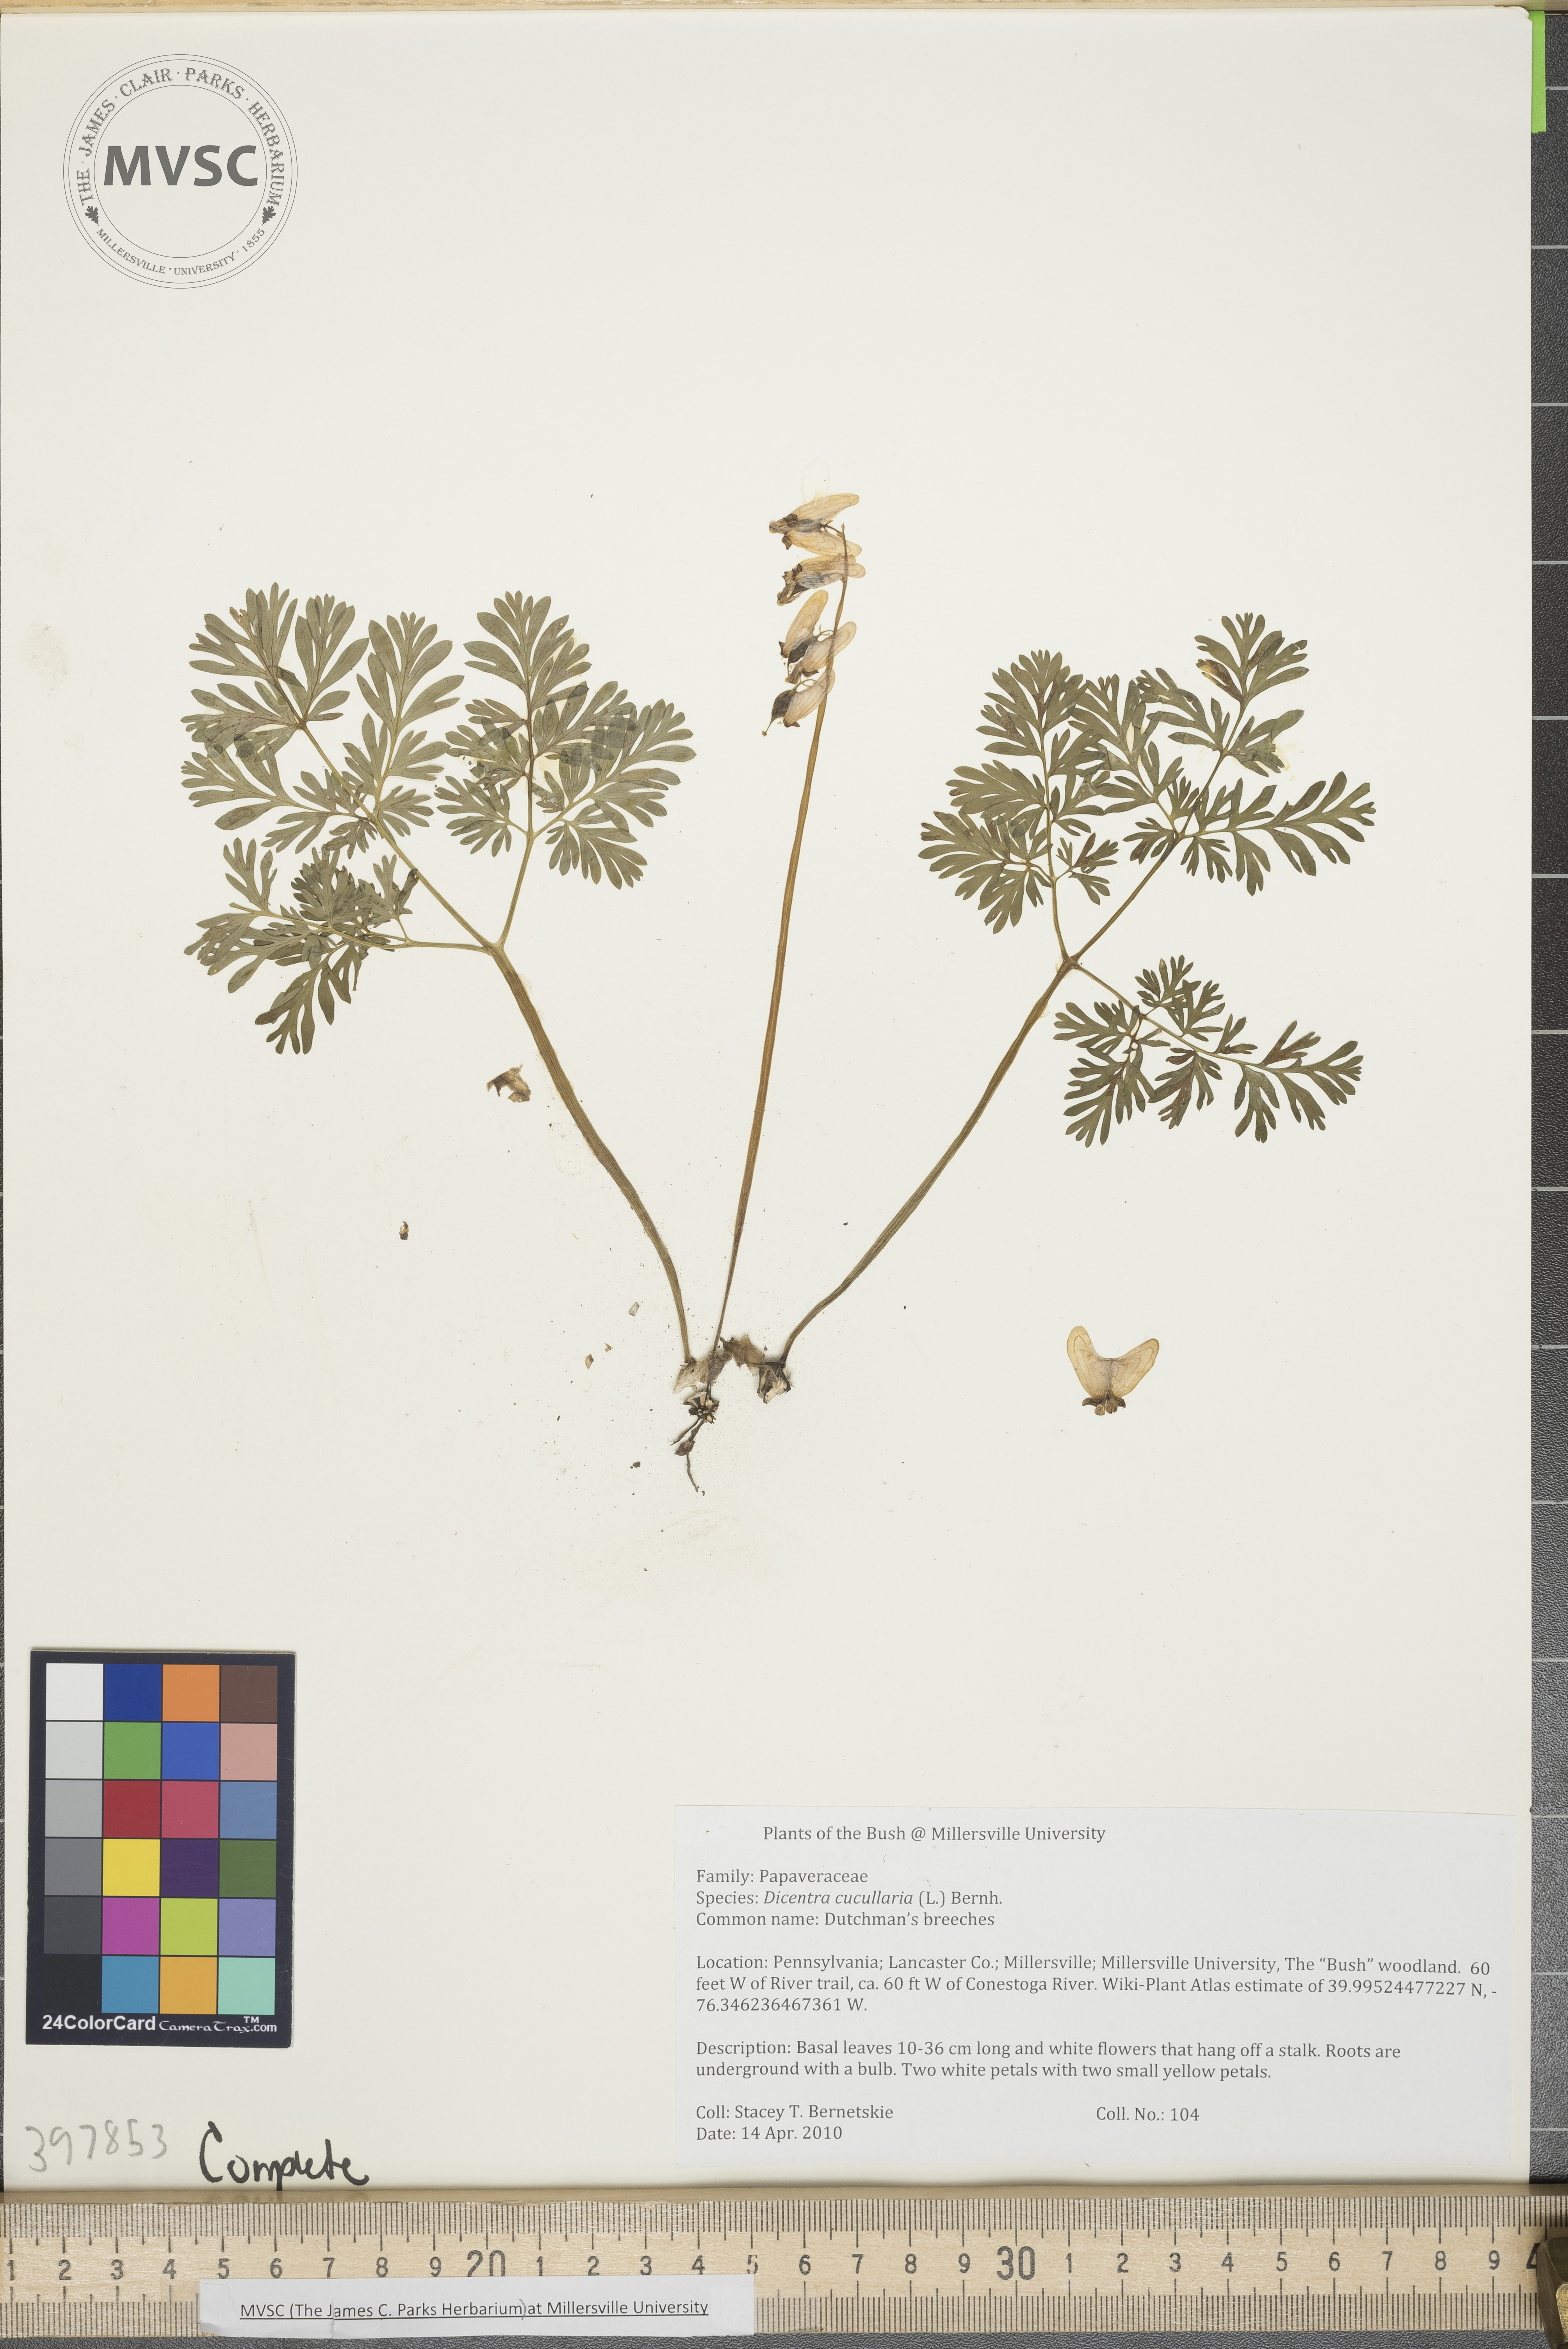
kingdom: Plantae
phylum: Tracheophyta
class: Magnoliopsida
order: Ranunculales
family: Papaveraceae
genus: Dicentra
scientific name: Dicentra cucullaria
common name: Dutchman's-breeches
